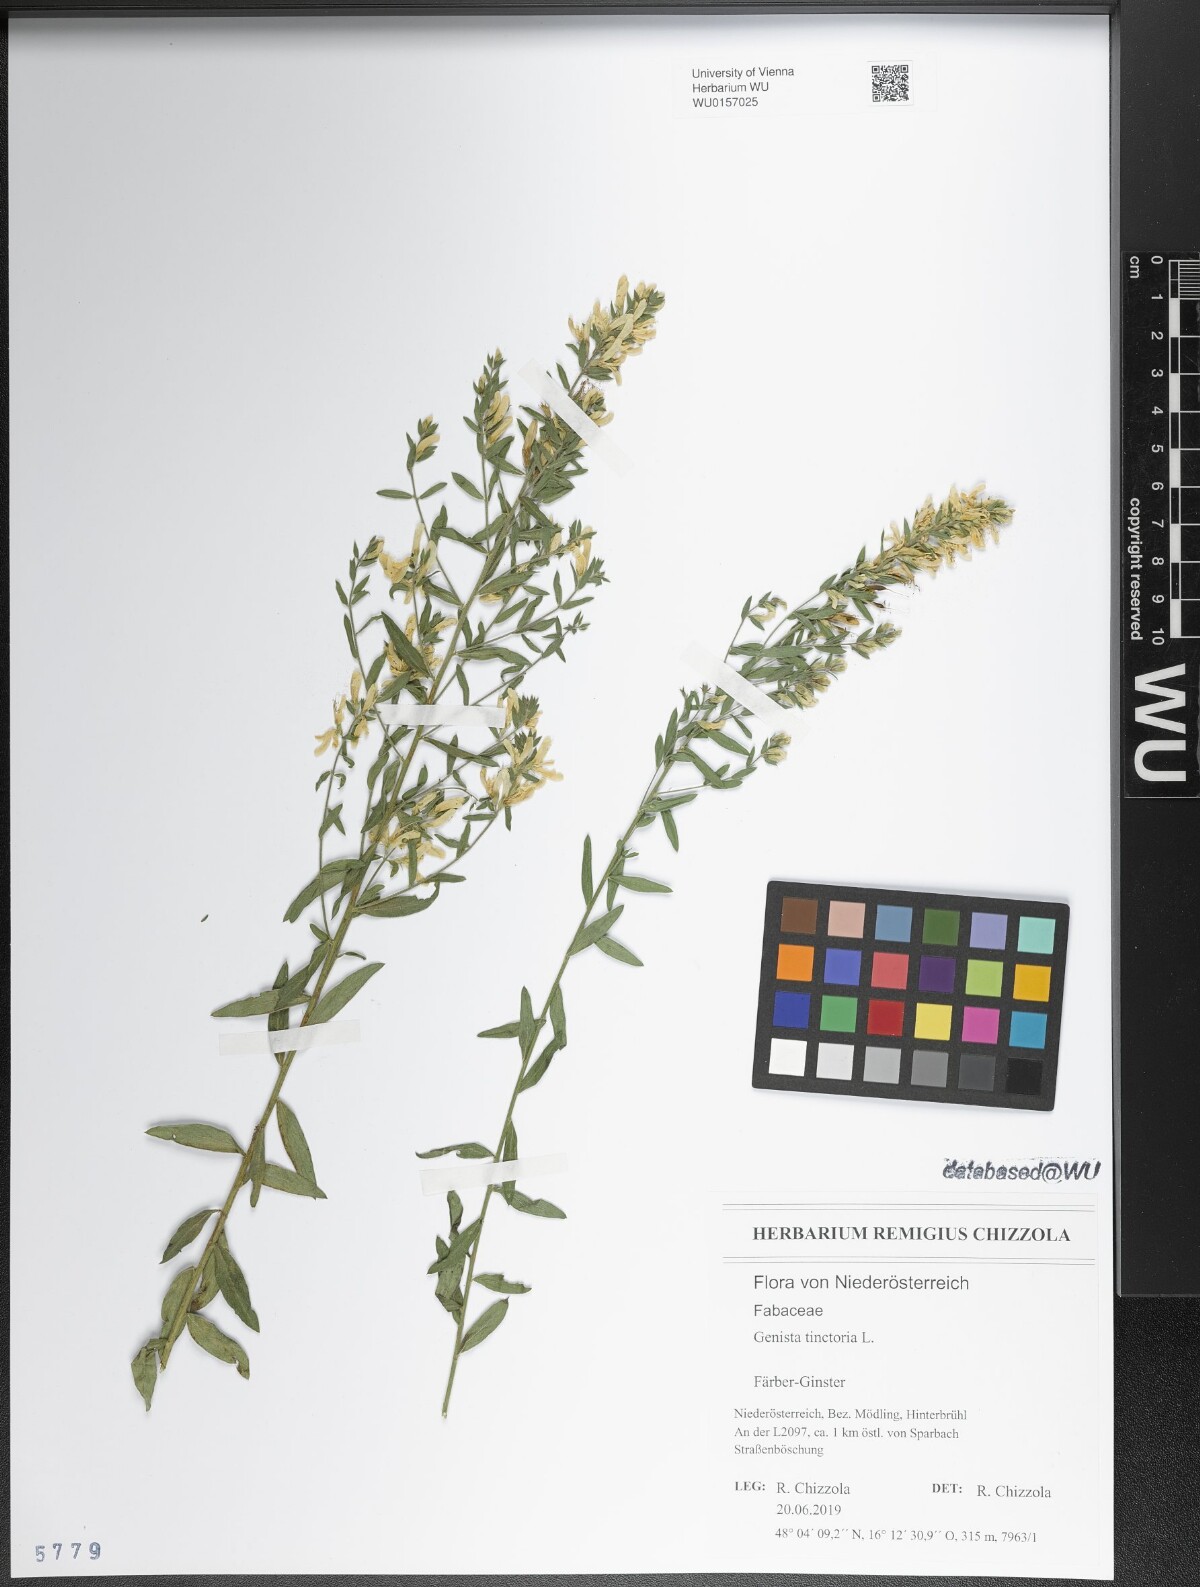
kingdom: Plantae
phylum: Tracheophyta
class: Magnoliopsida
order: Fabales
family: Fabaceae
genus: Genista
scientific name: Genista tinctoria
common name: Dyer's greenweed
